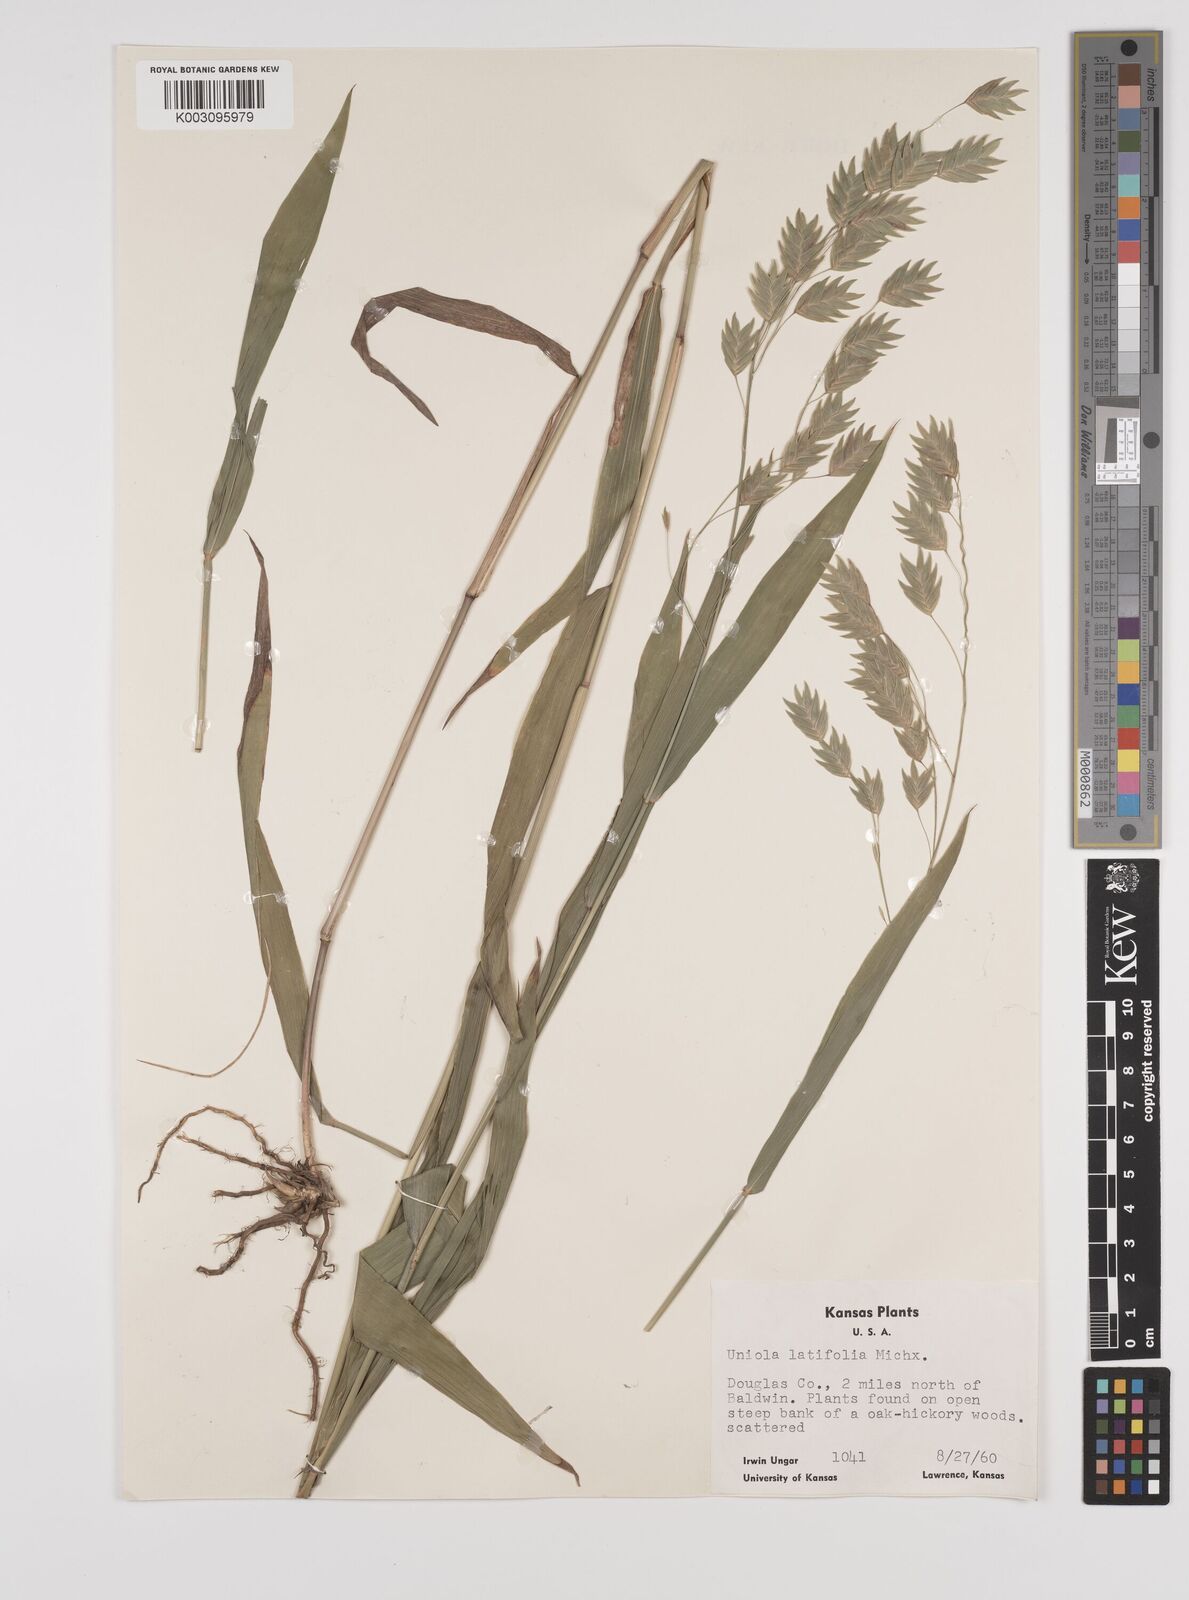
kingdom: Plantae
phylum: Tracheophyta
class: Liliopsida
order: Poales
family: Poaceae
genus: Chasmanthium
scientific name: Chasmanthium latifolium
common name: Broad-leaved chasmanthium
